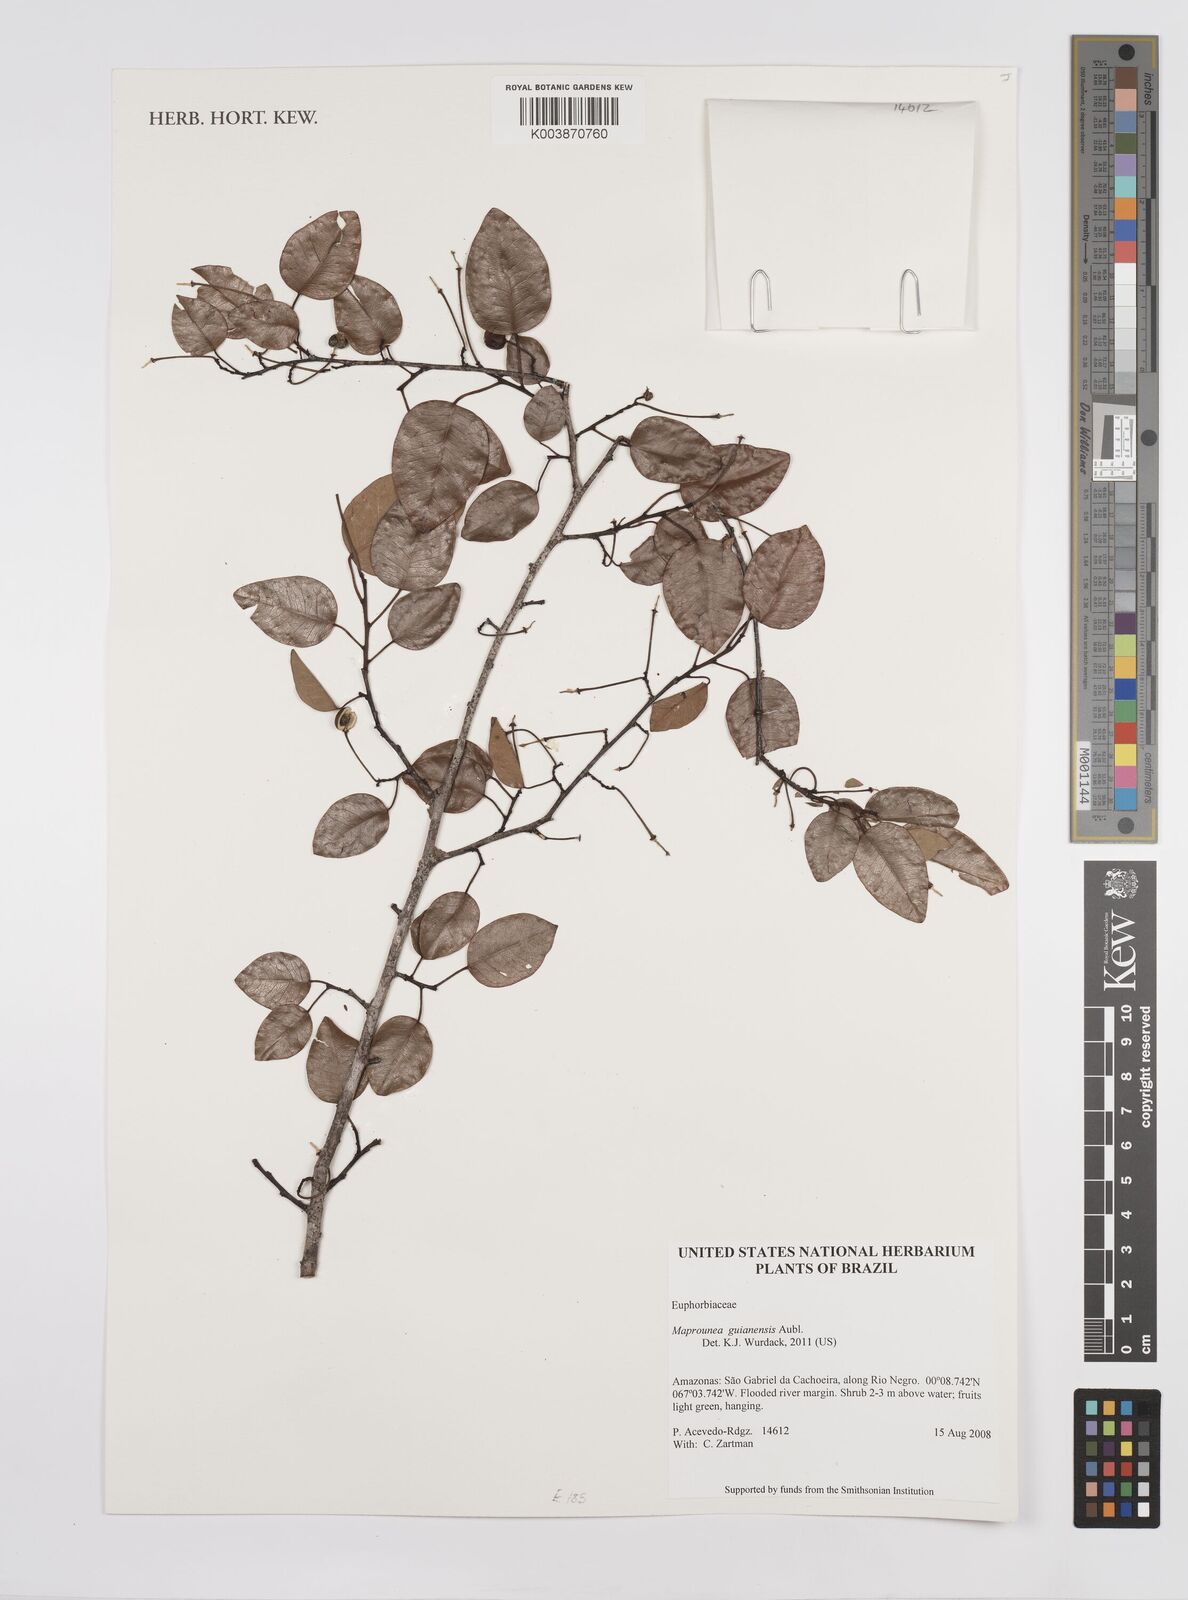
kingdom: Plantae
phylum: Tracheophyta
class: Magnoliopsida
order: Malpighiales
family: Euphorbiaceae
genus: Maprounea
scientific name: Maprounea guianensis
